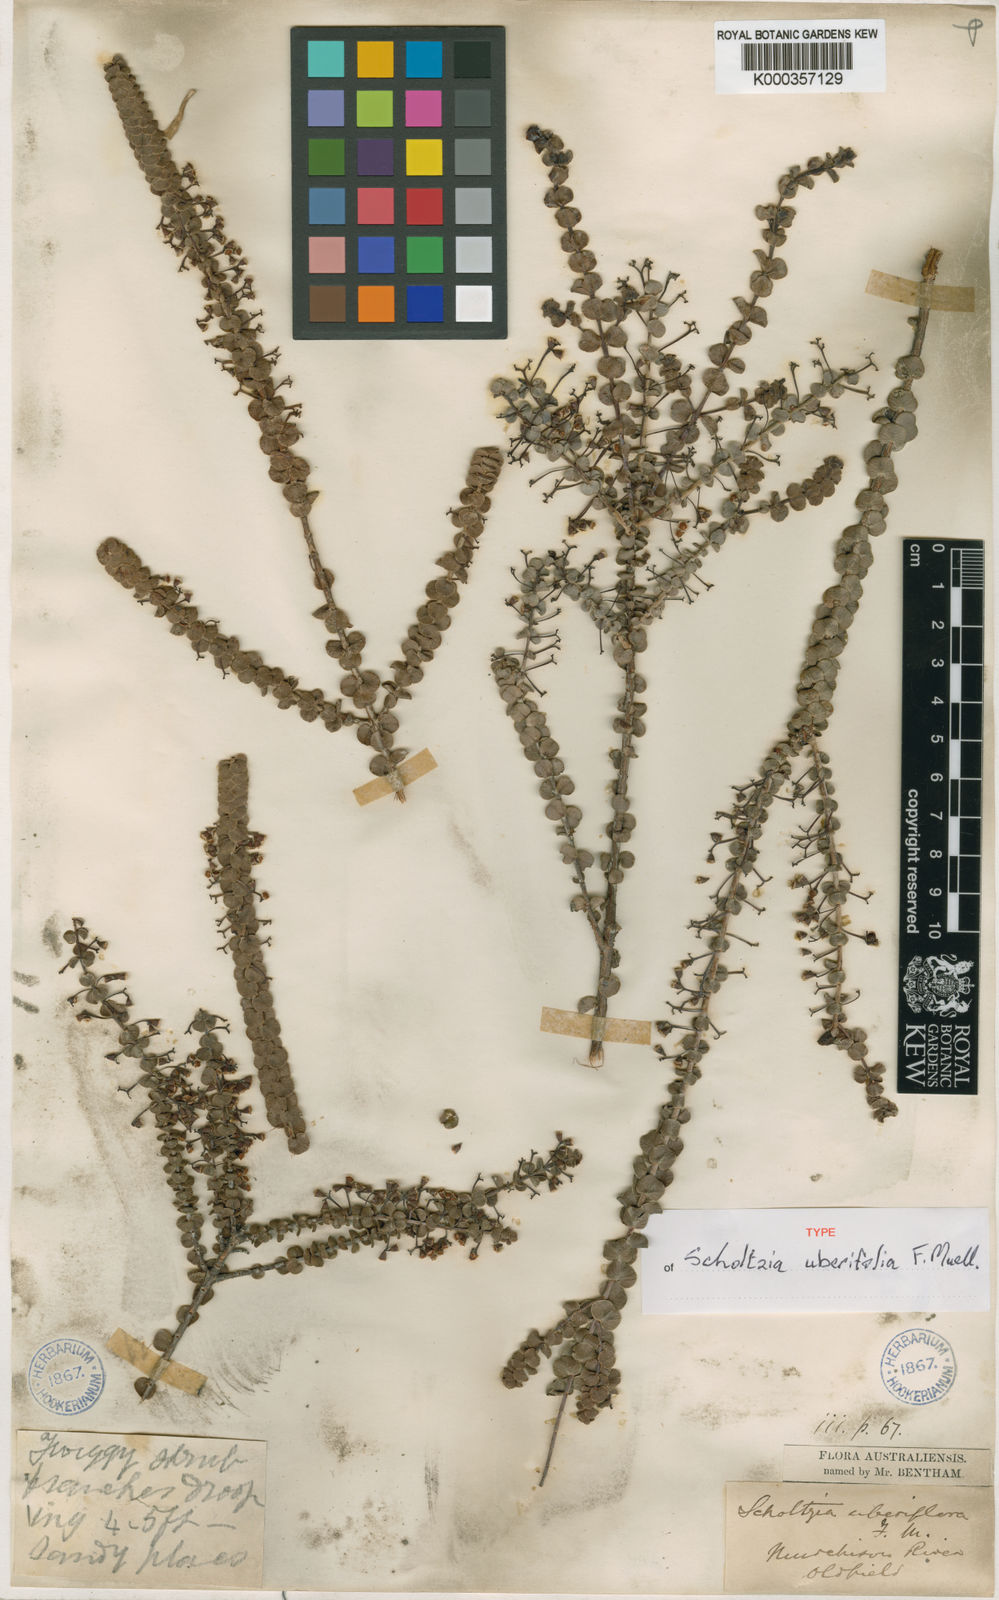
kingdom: Plantae
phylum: Tracheophyta
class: Magnoliopsida
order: Myrtales
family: Myrtaceae
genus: Scholtzia
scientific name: Scholtzia uberiflora
